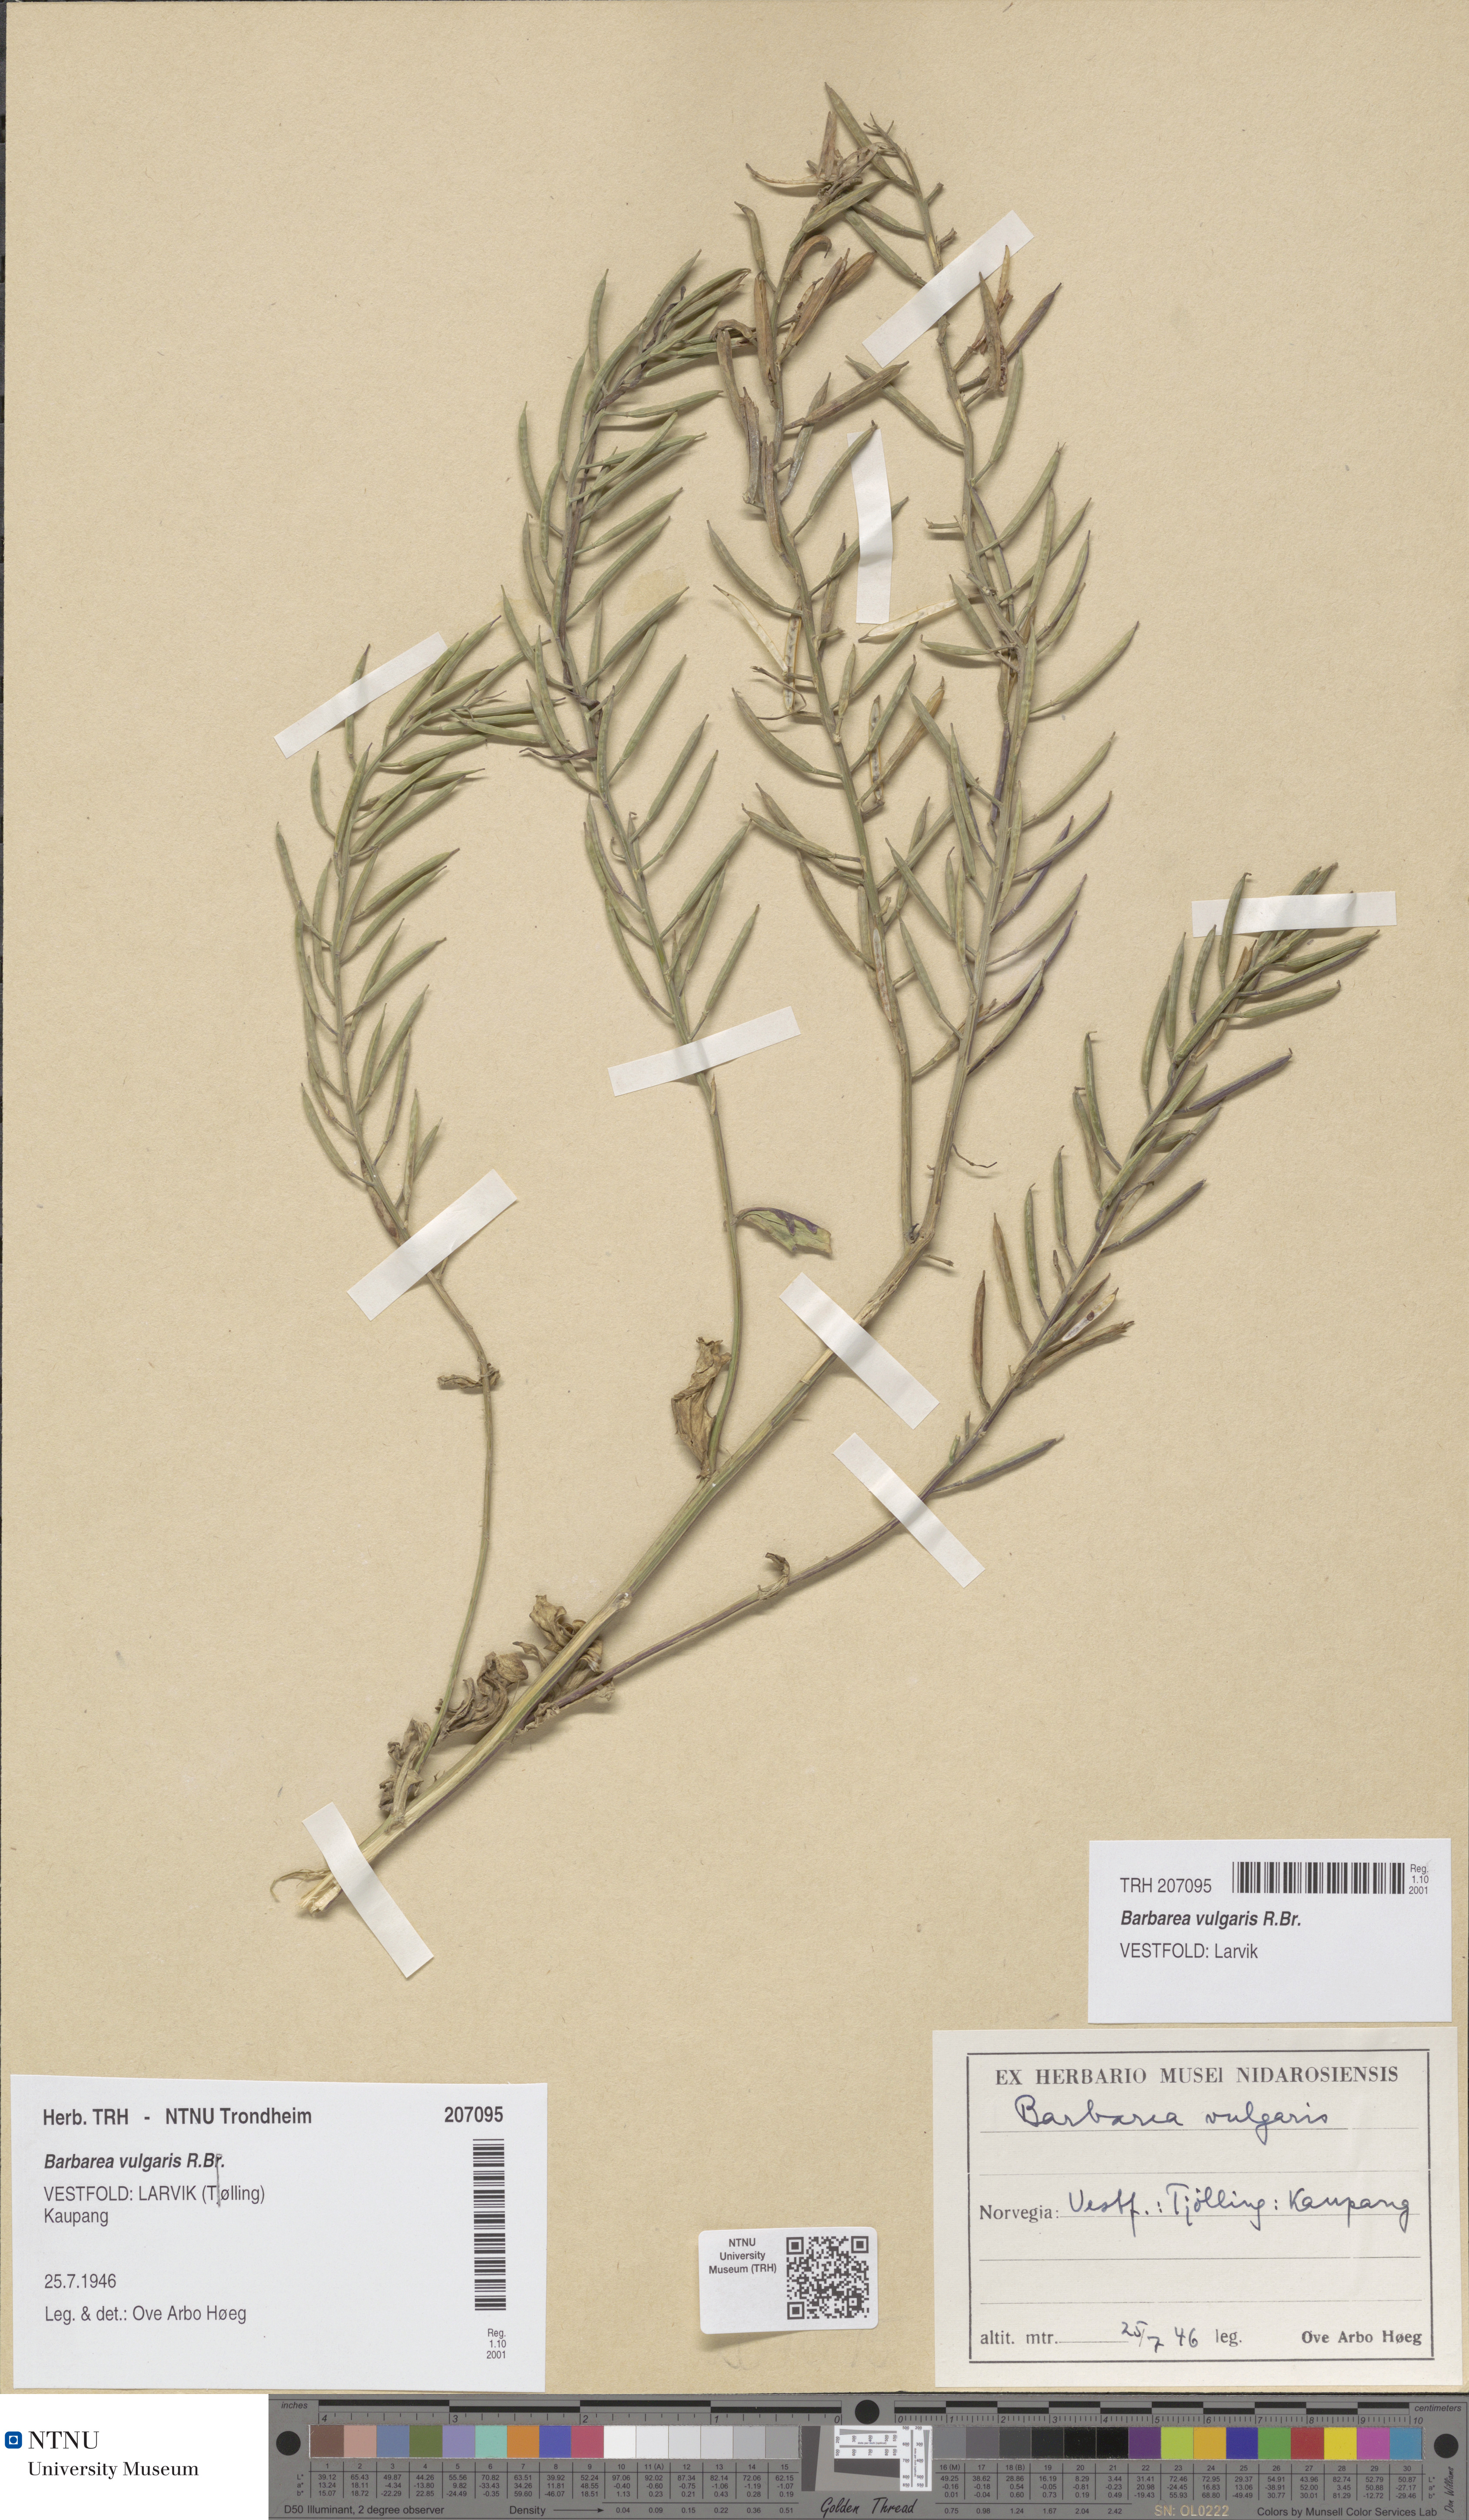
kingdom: Plantae
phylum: Tracheophyta
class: Magnoliopsida
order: Brassicales
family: Brassicaceae
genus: Barbarea
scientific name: Barbarea vulgaris
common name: Cressy-greens
